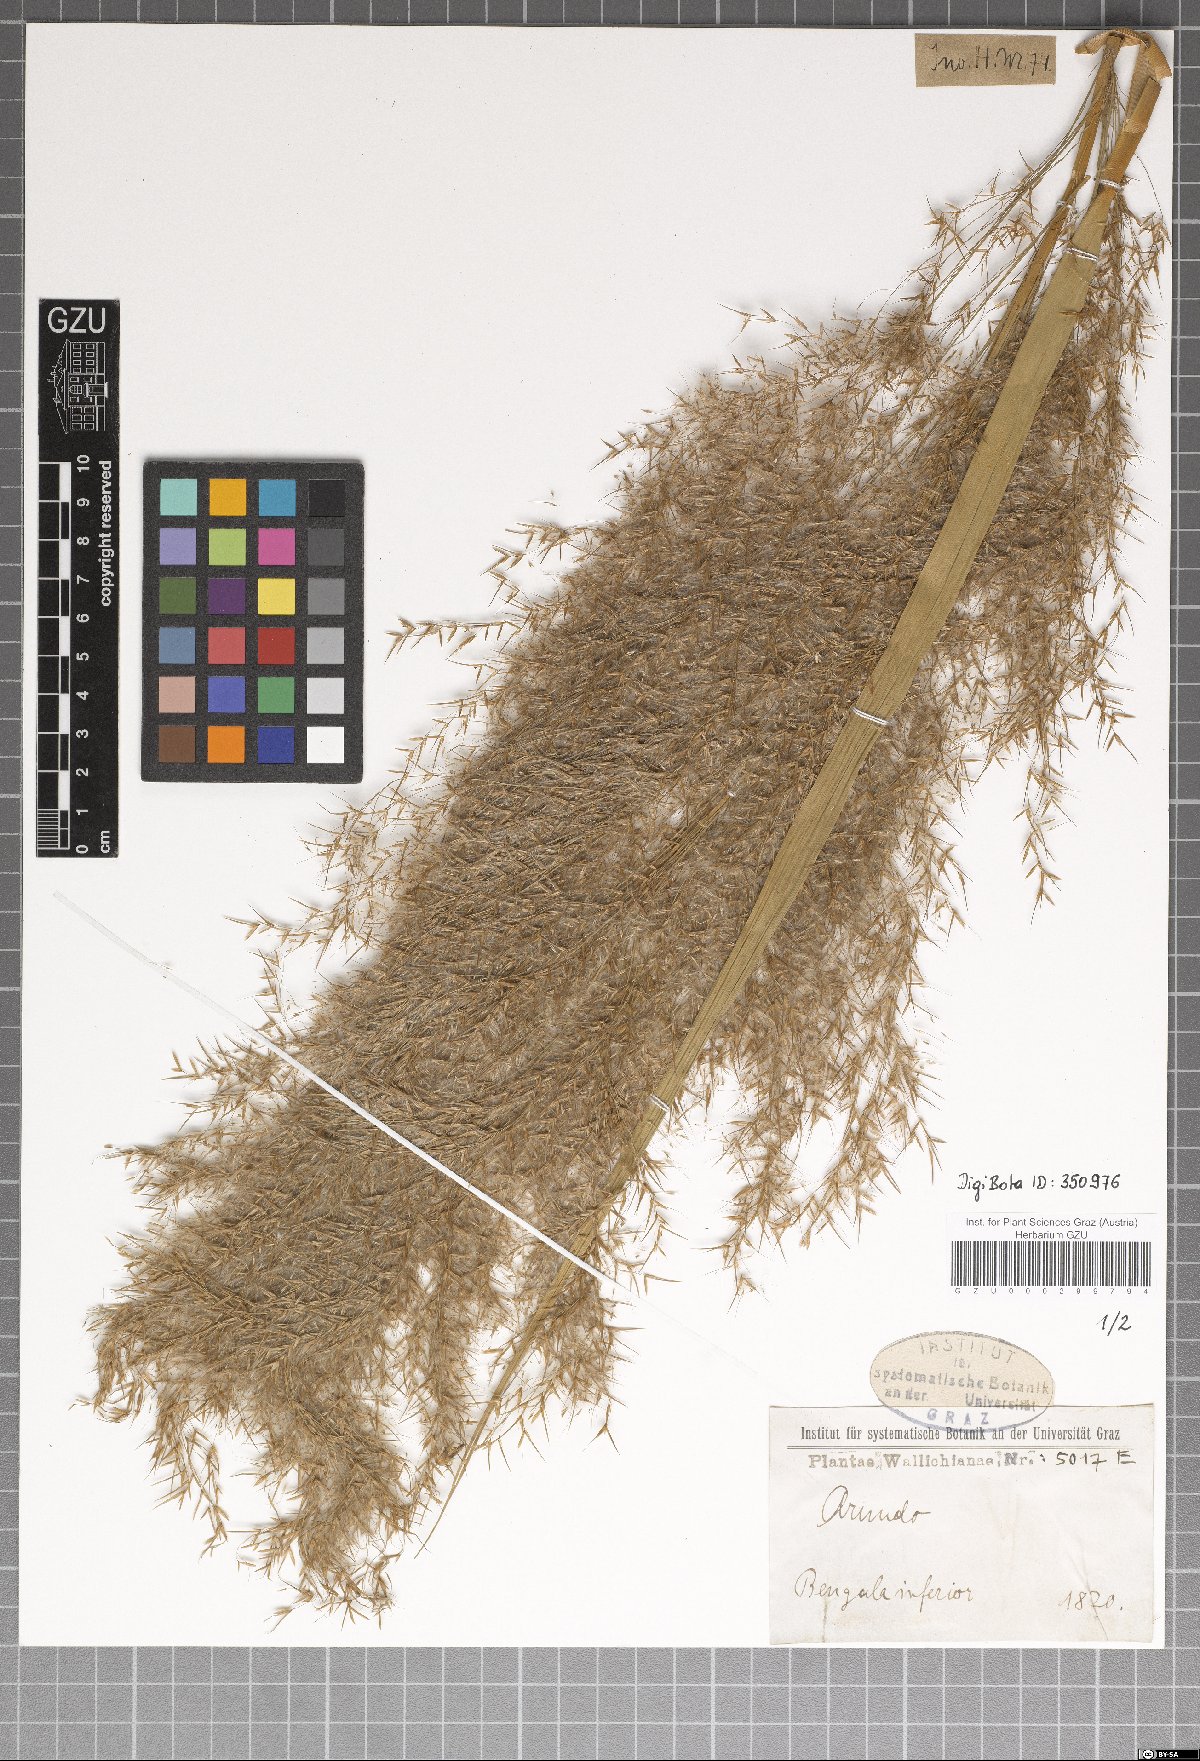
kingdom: Plantae
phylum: Tracheophyta
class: Liliopsida
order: Poales
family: Poaceae
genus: Arundo
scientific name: Arundo
